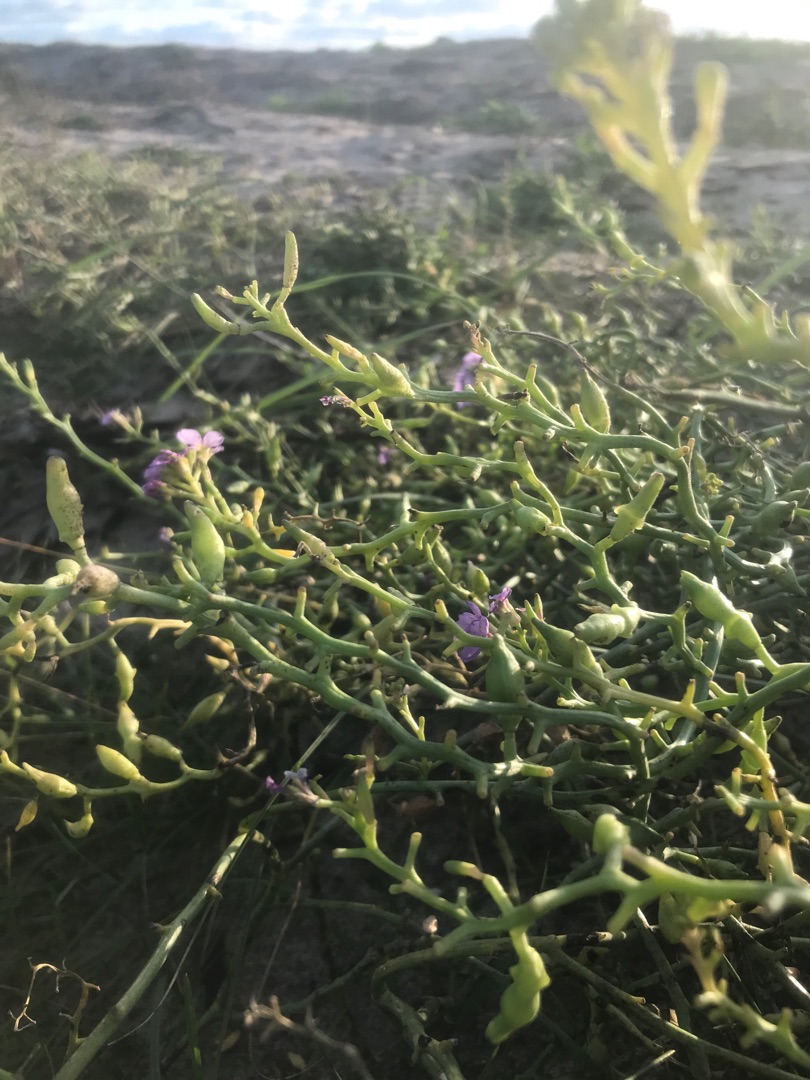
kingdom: Plantae
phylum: Tracheophyta
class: Magnoliopsida
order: Brassicales
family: Brassicaceae
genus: Cakile
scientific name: Cakile maritima
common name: Strandsennep
